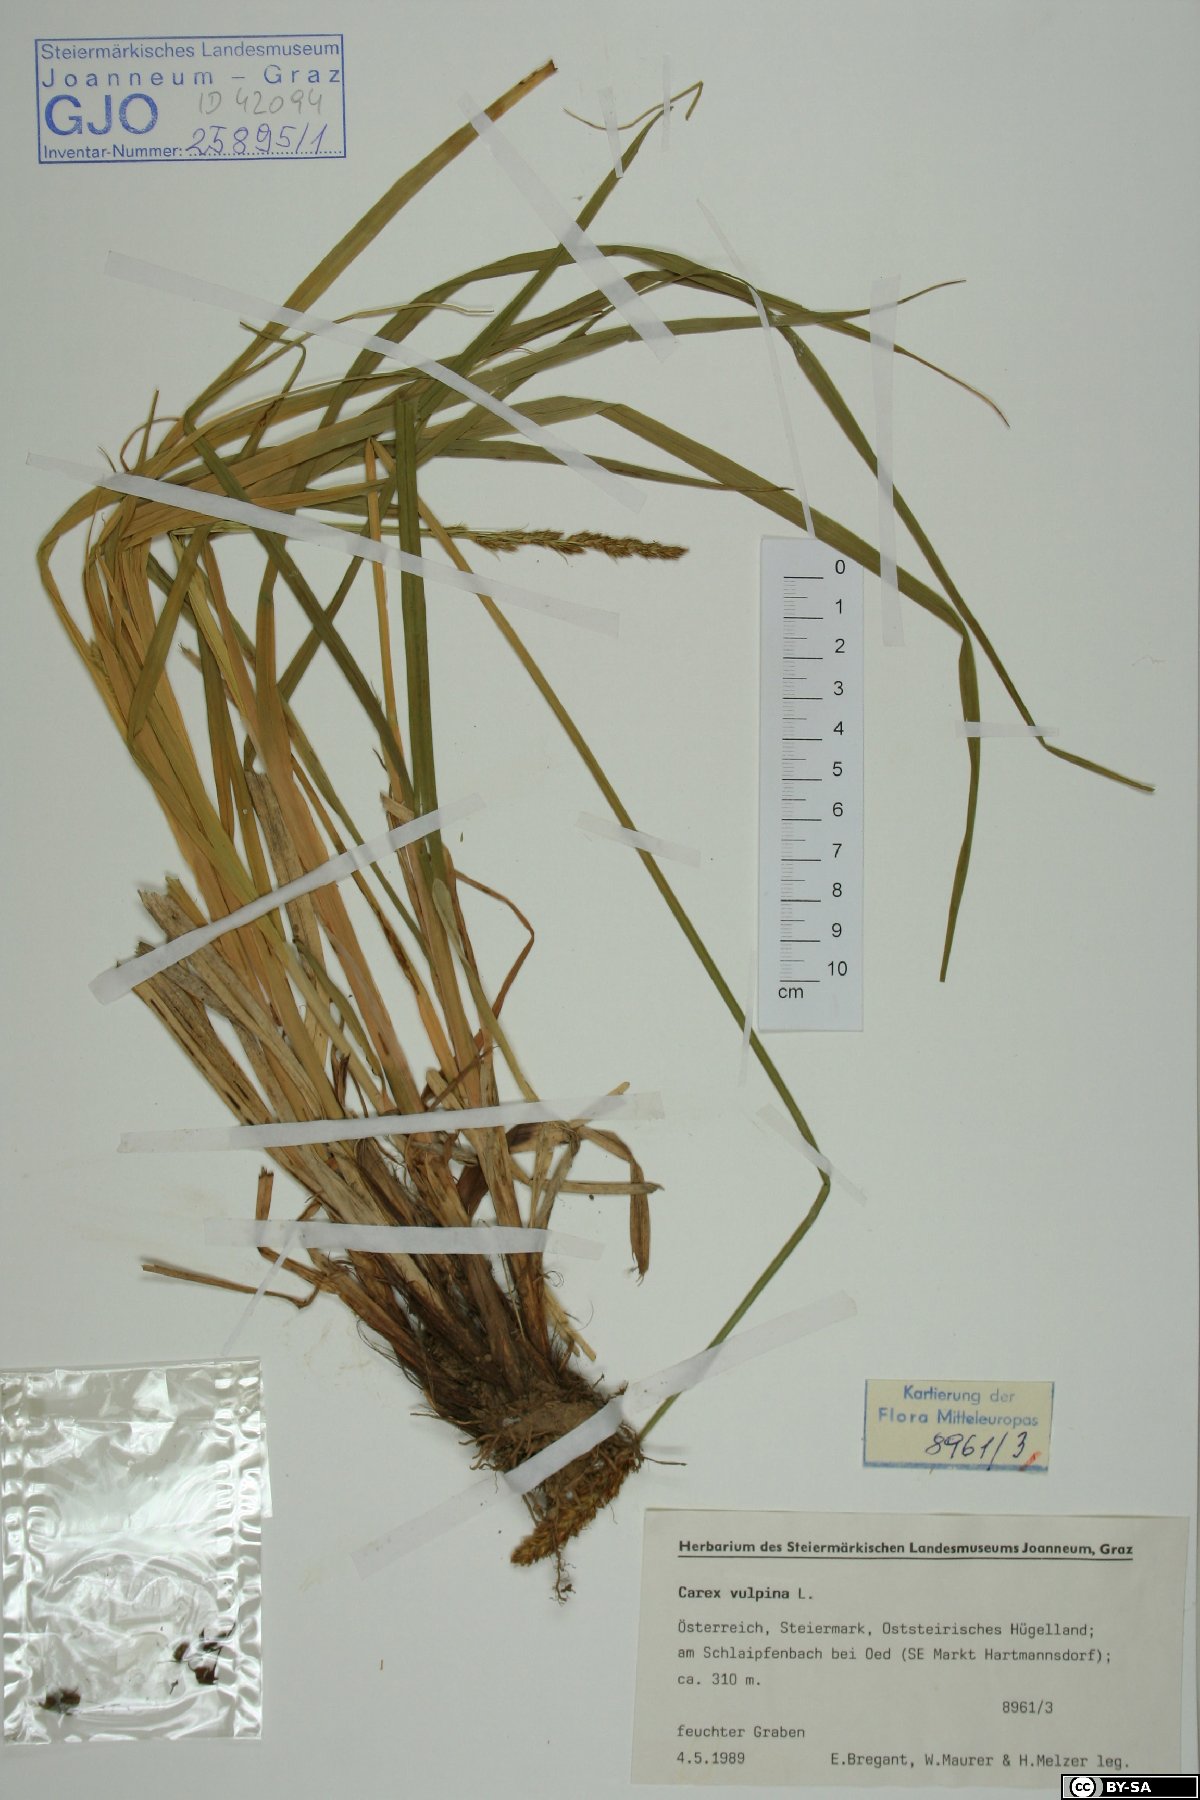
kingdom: Plantae
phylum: Tracheophyta
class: Liliopsida
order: Poales
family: Cyperaceae
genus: Carex
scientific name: Carex vulpina
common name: True fox-sedge
